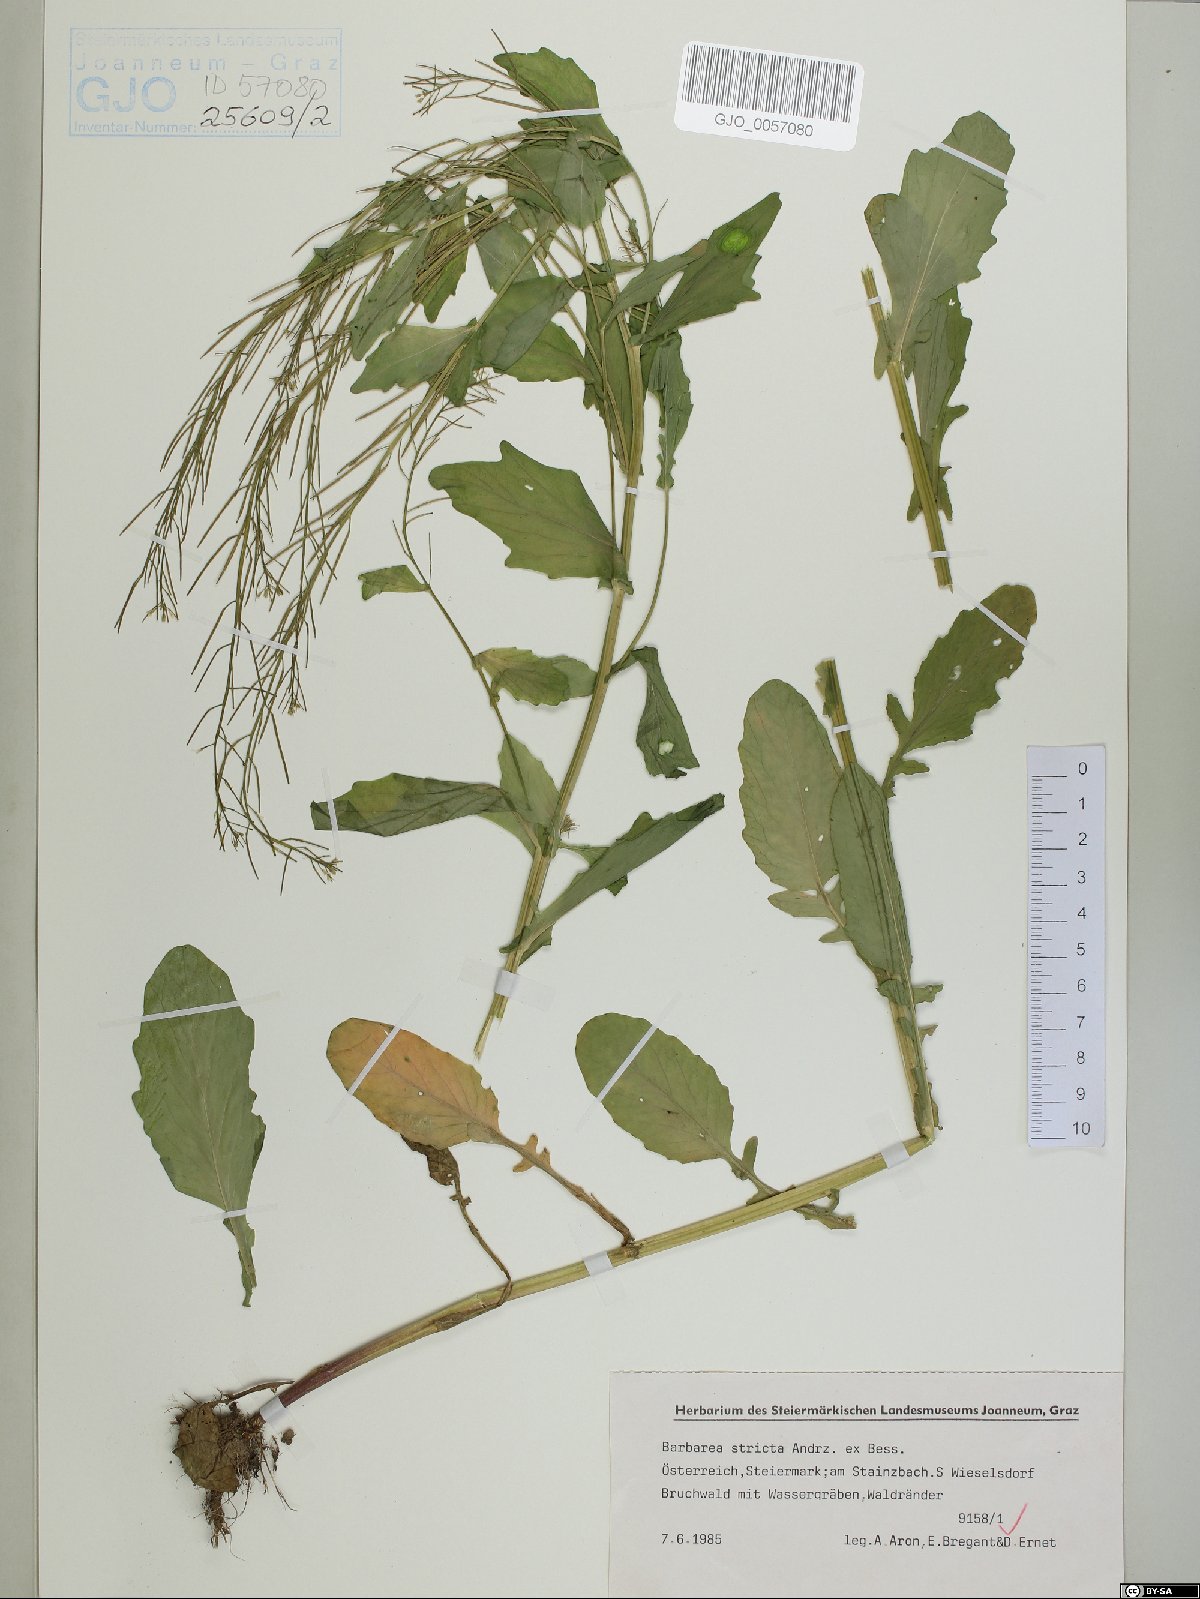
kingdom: Plantae
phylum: Tracheophyta
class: Magnoliopsida
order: Brassicales
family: Brassicaceae
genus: Barbarea
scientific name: Barbarea stricta
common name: Small-flowered winter-cress
